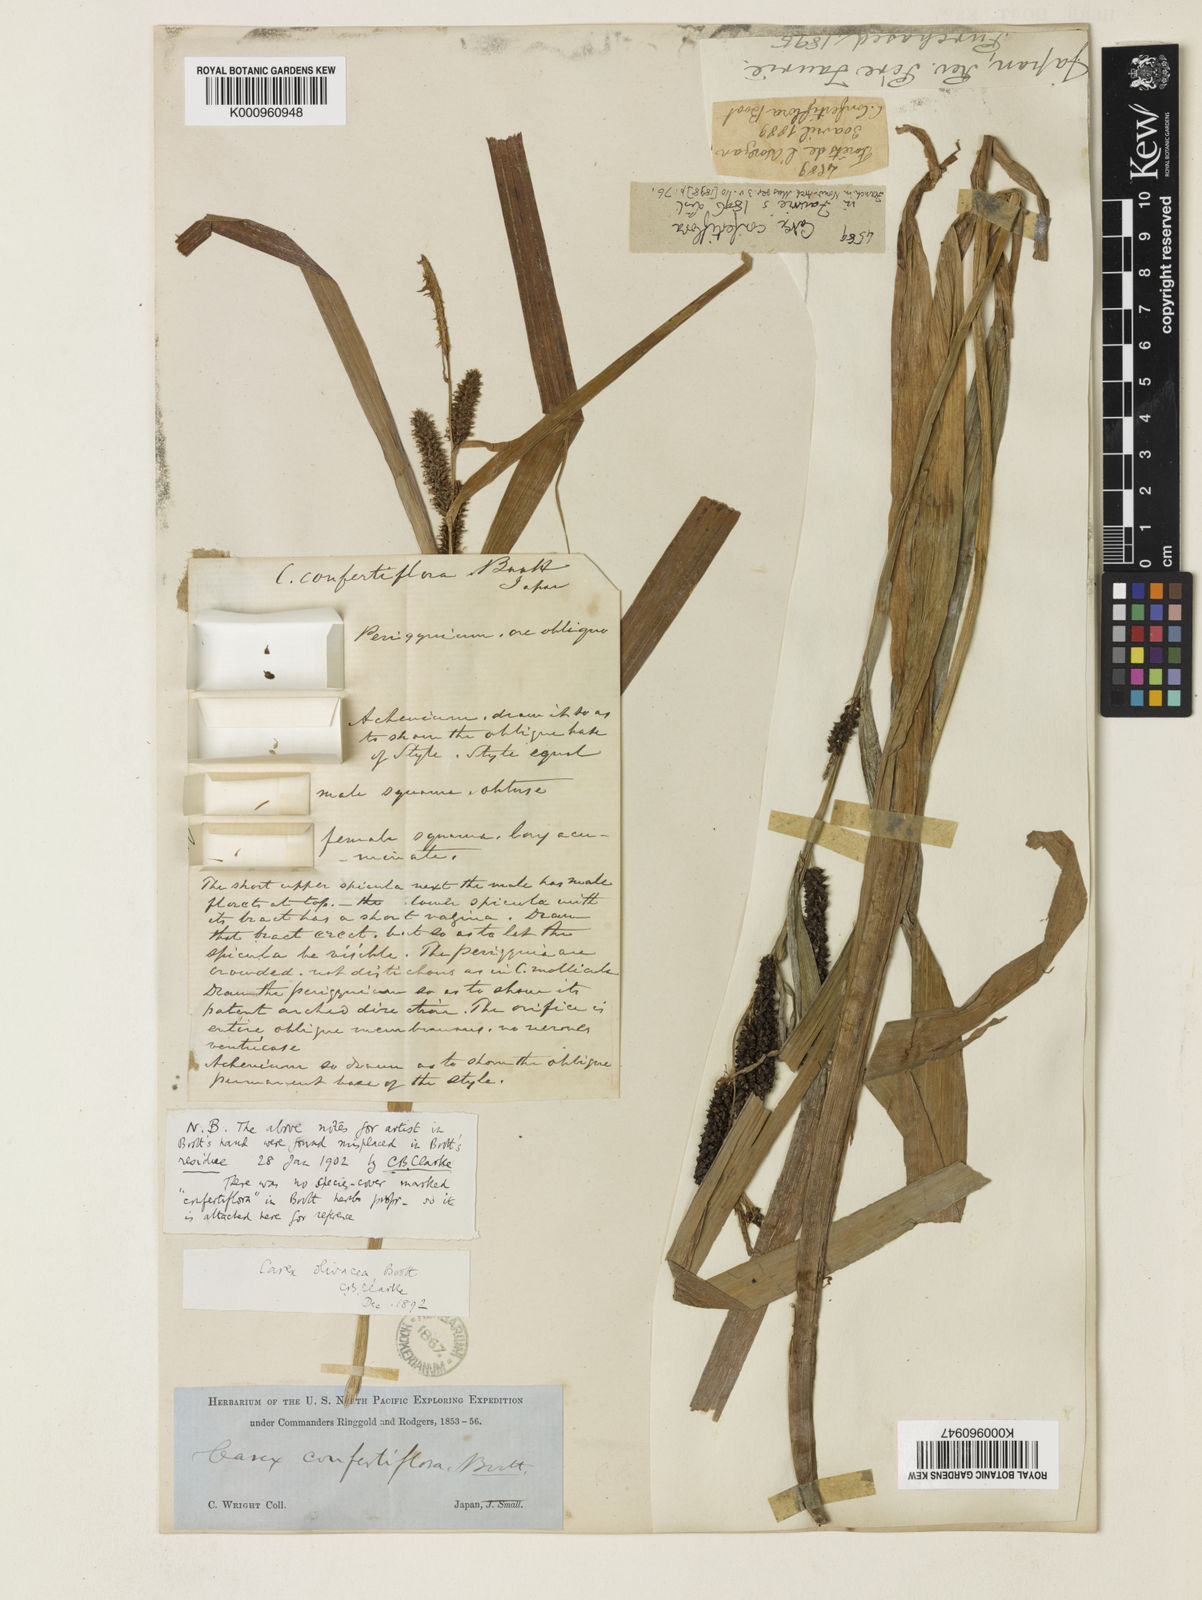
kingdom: Plantae
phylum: Tracheophyta
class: Liliopsida
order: Poales
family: Cyperaceae
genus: Carex
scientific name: Carex olivacea
